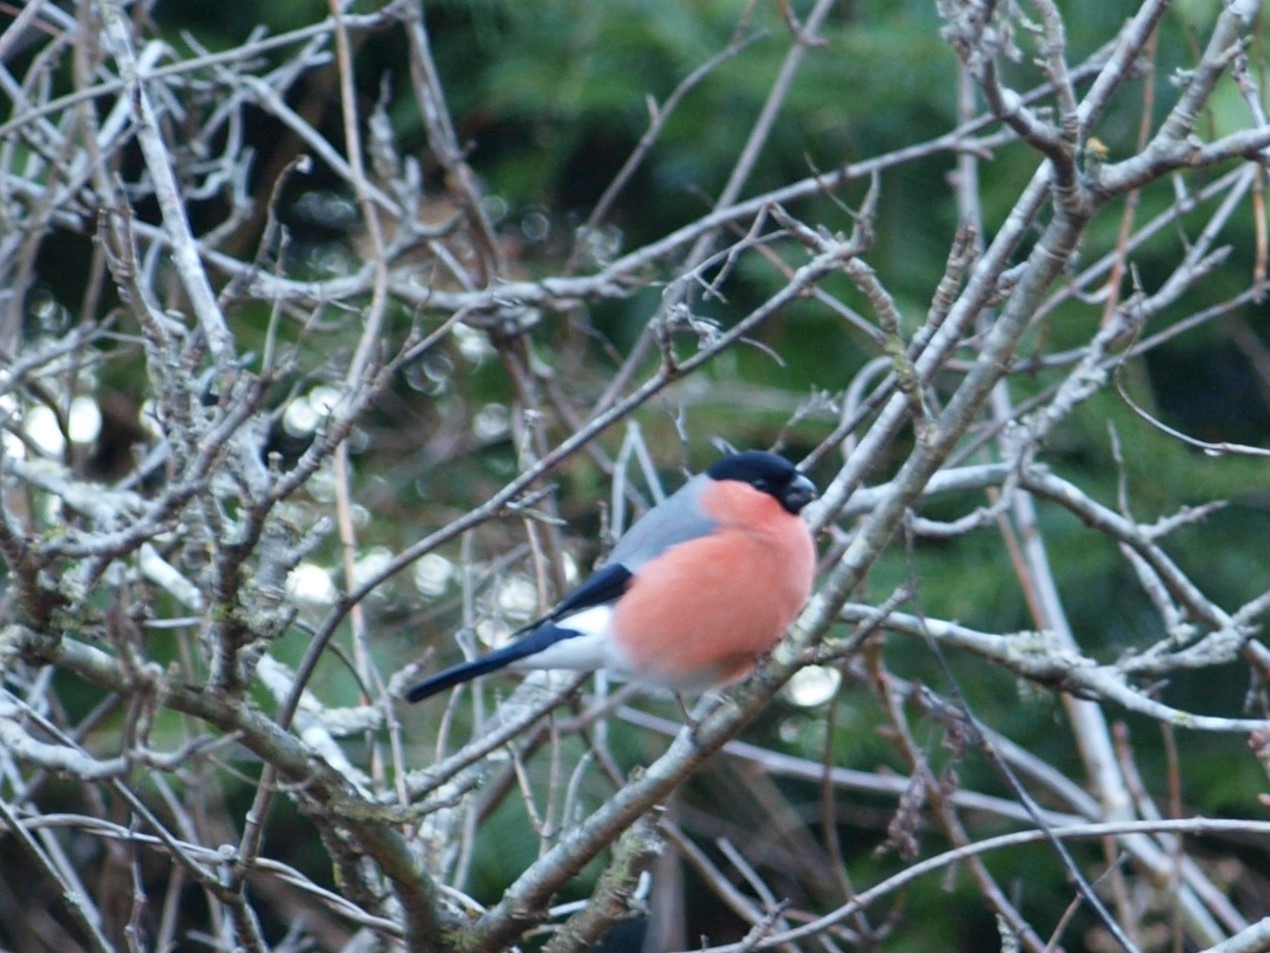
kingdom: Animalia
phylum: Chordata
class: Aves
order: Passeriformes
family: Fringillidae
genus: Pyrrhula
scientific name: Pyrrhula pyrrhula
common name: Dompap
